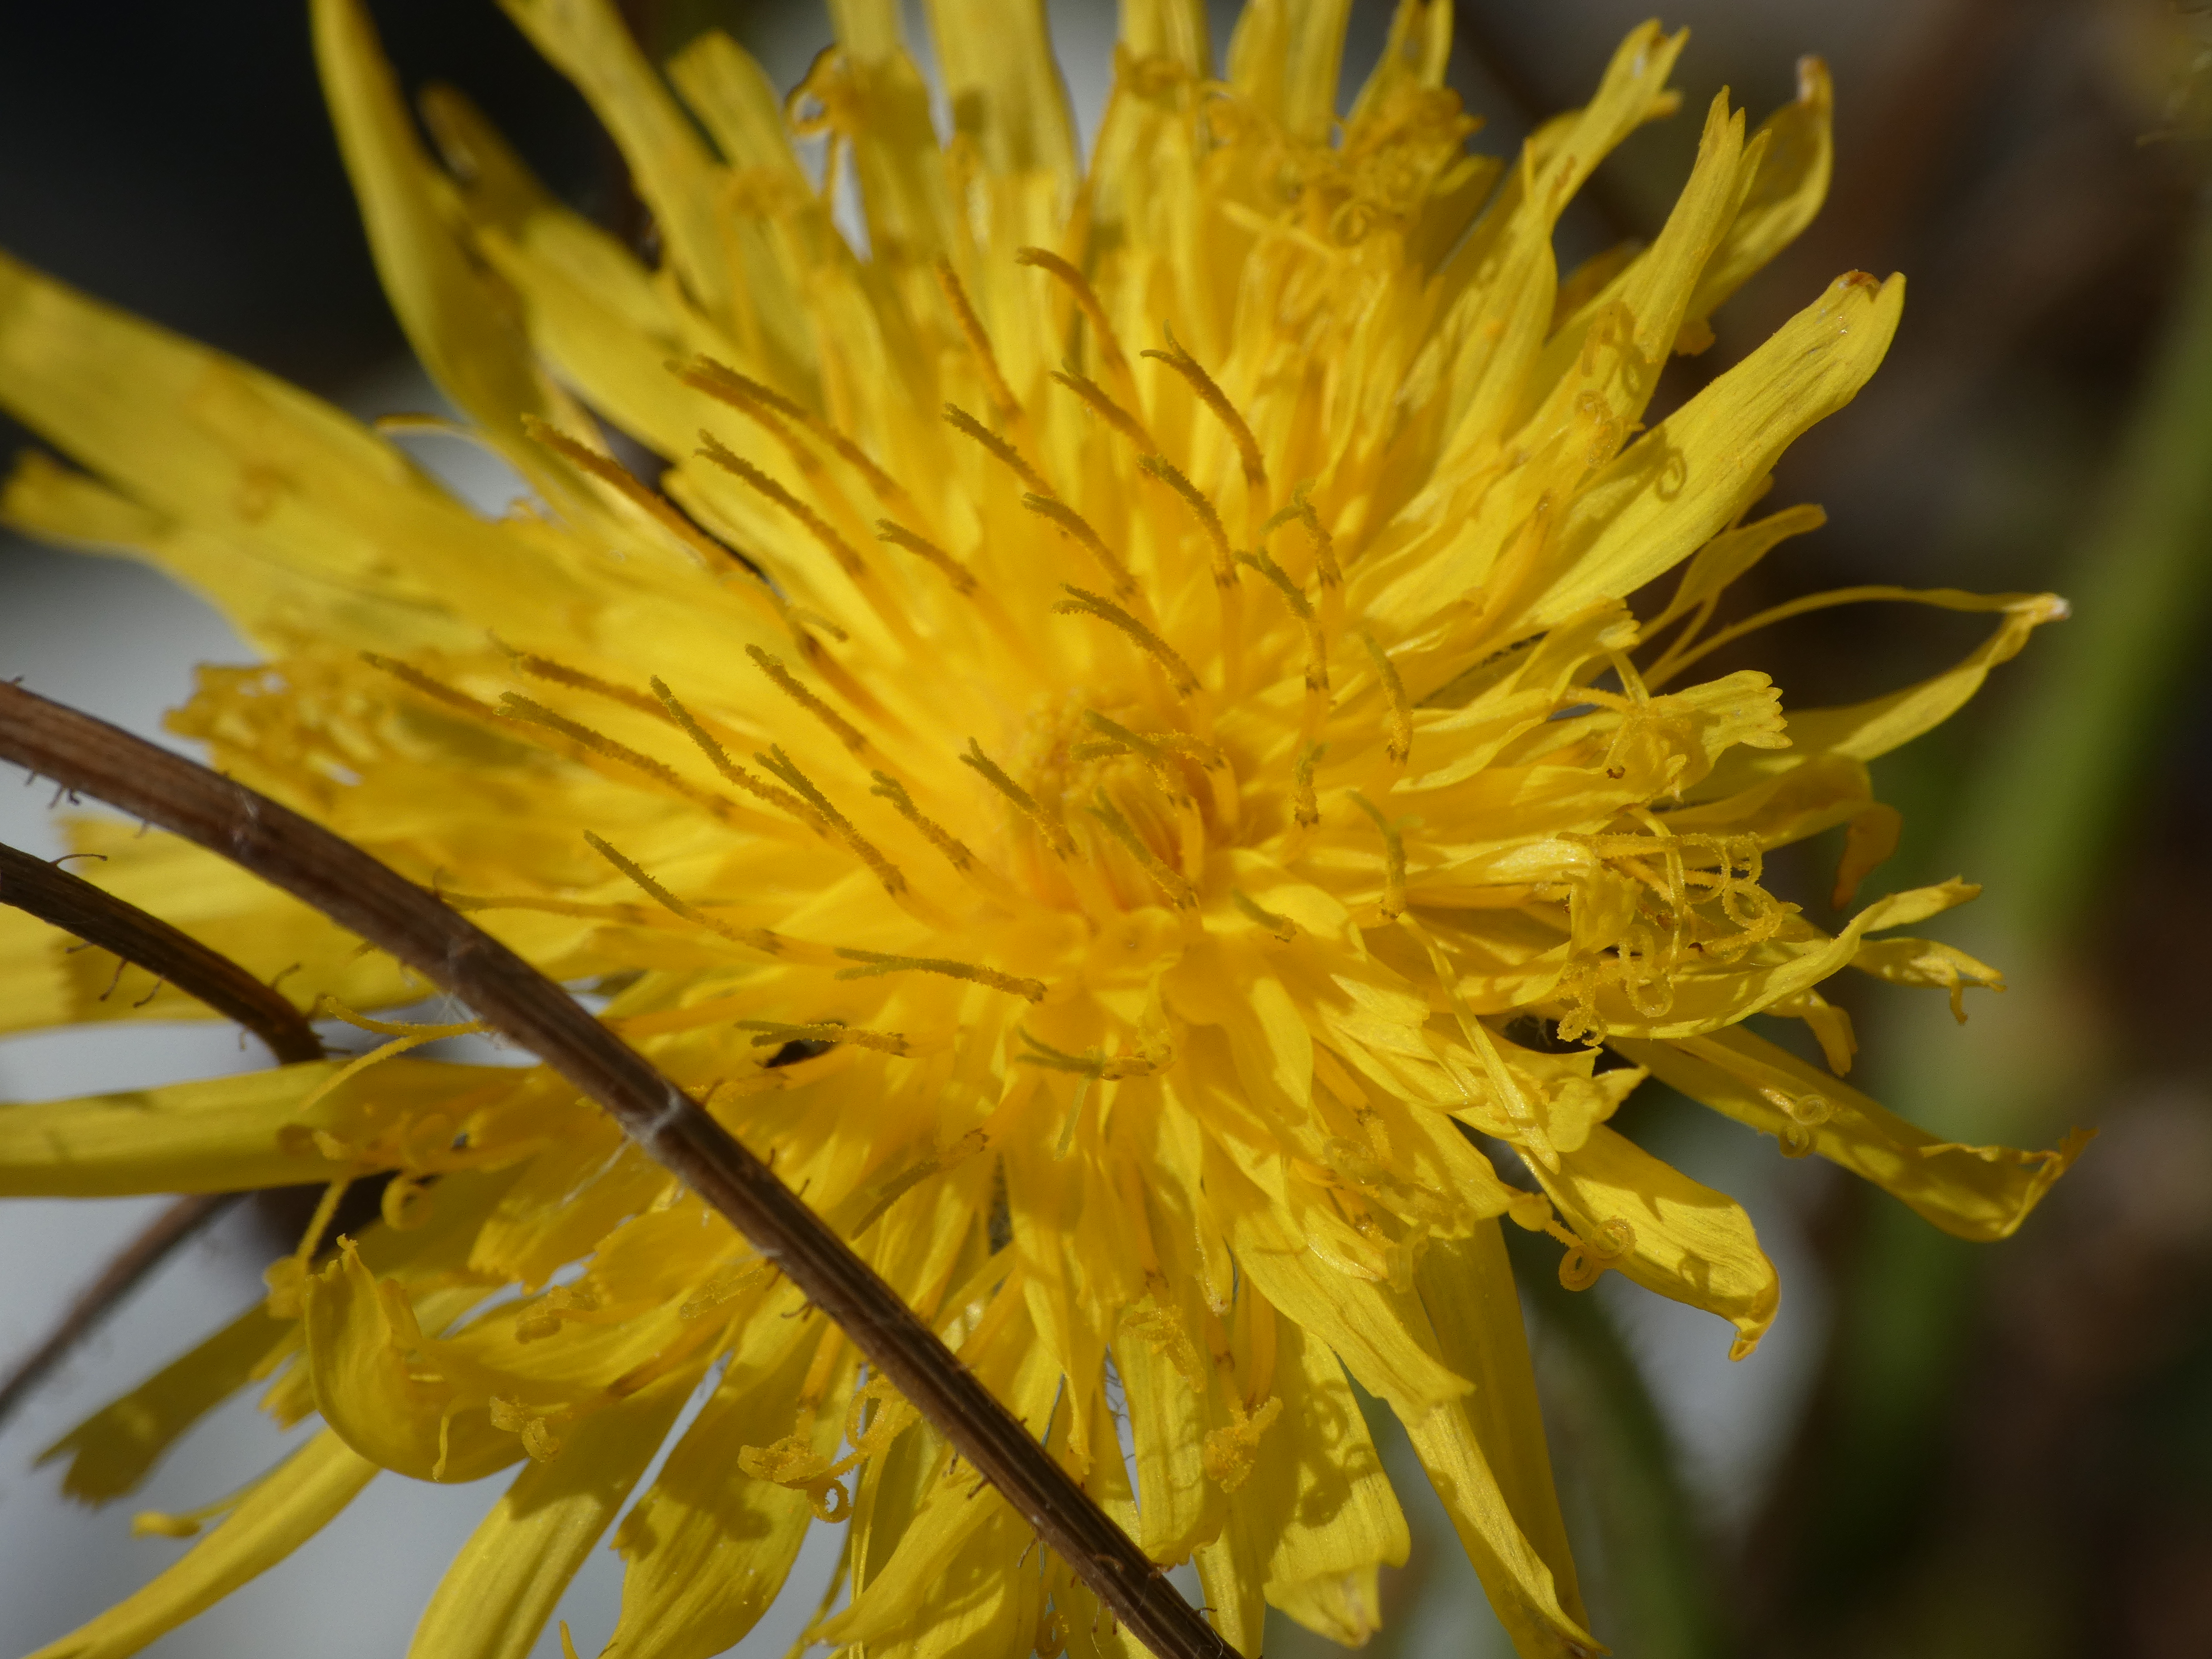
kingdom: Plantae
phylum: Tracheophyta
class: Magnoliopsida
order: Asterales
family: Asteraceae
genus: Sonchus
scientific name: Sonchus arvensis
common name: Ager-svinemælk
